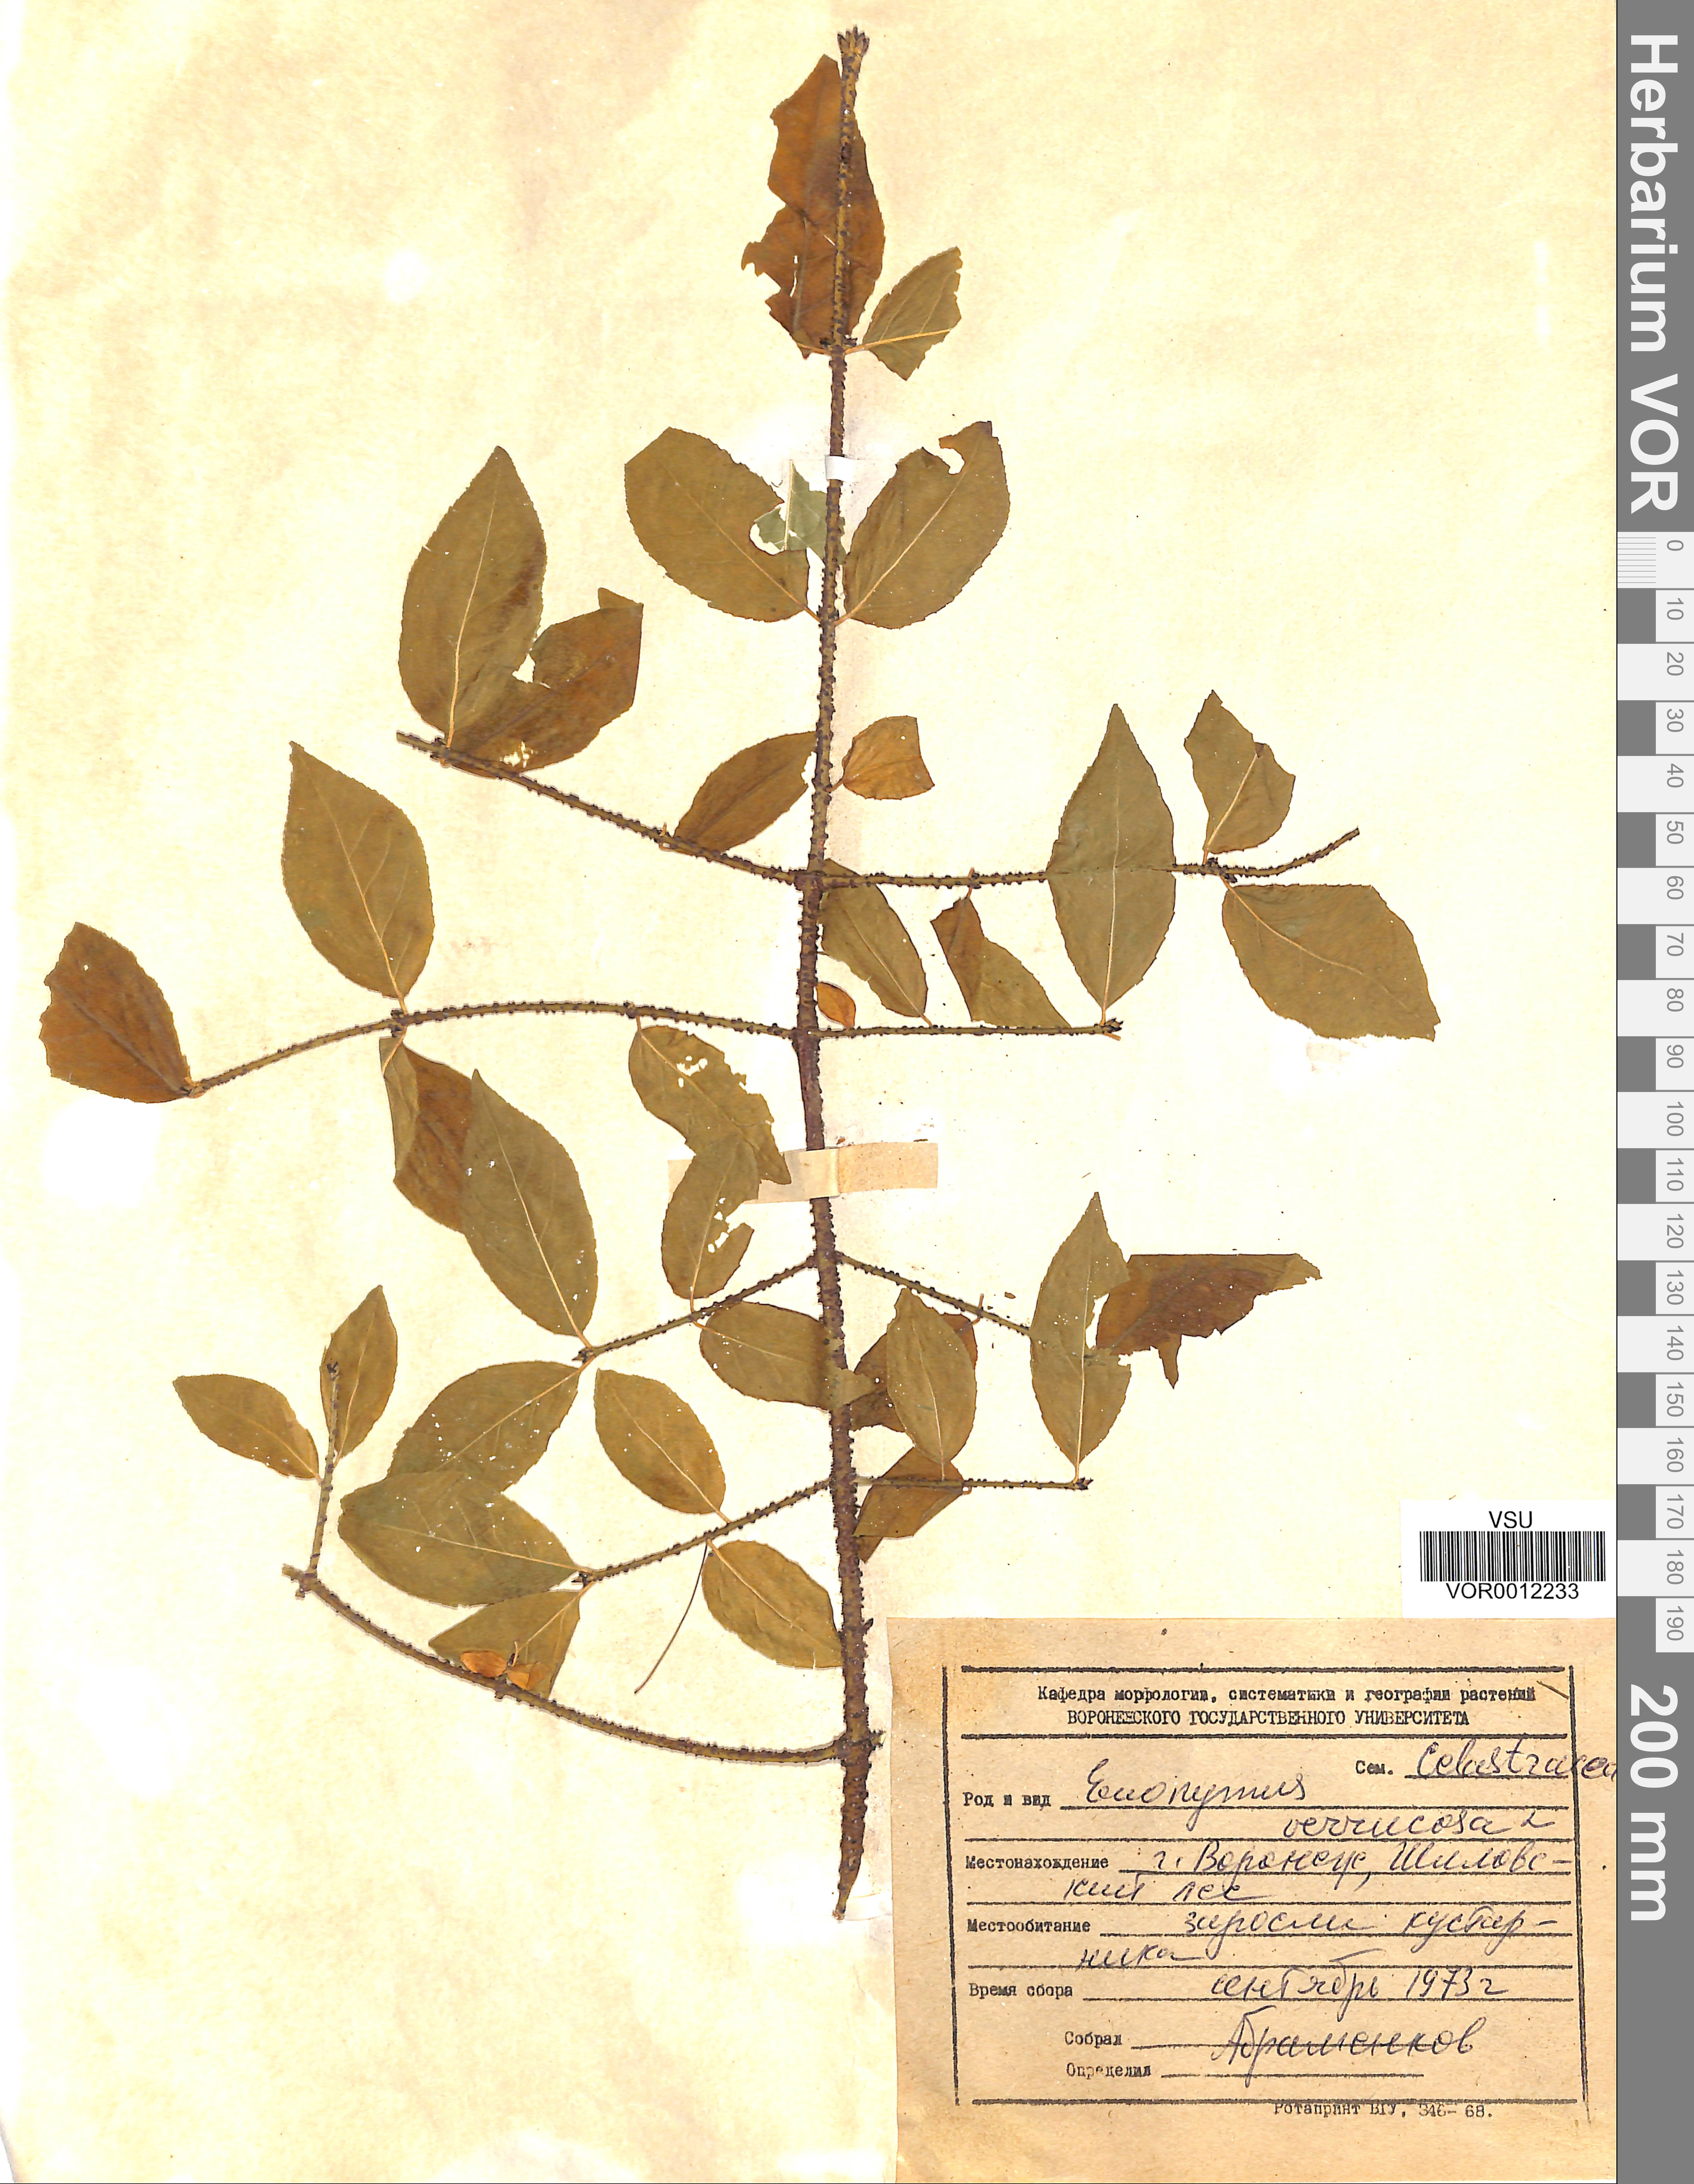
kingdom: Plantae
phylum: Tracheophyta
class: Magnoliopsida
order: Celastrales
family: Celastraceae
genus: Euonymus
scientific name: Euonymus verrucosus
